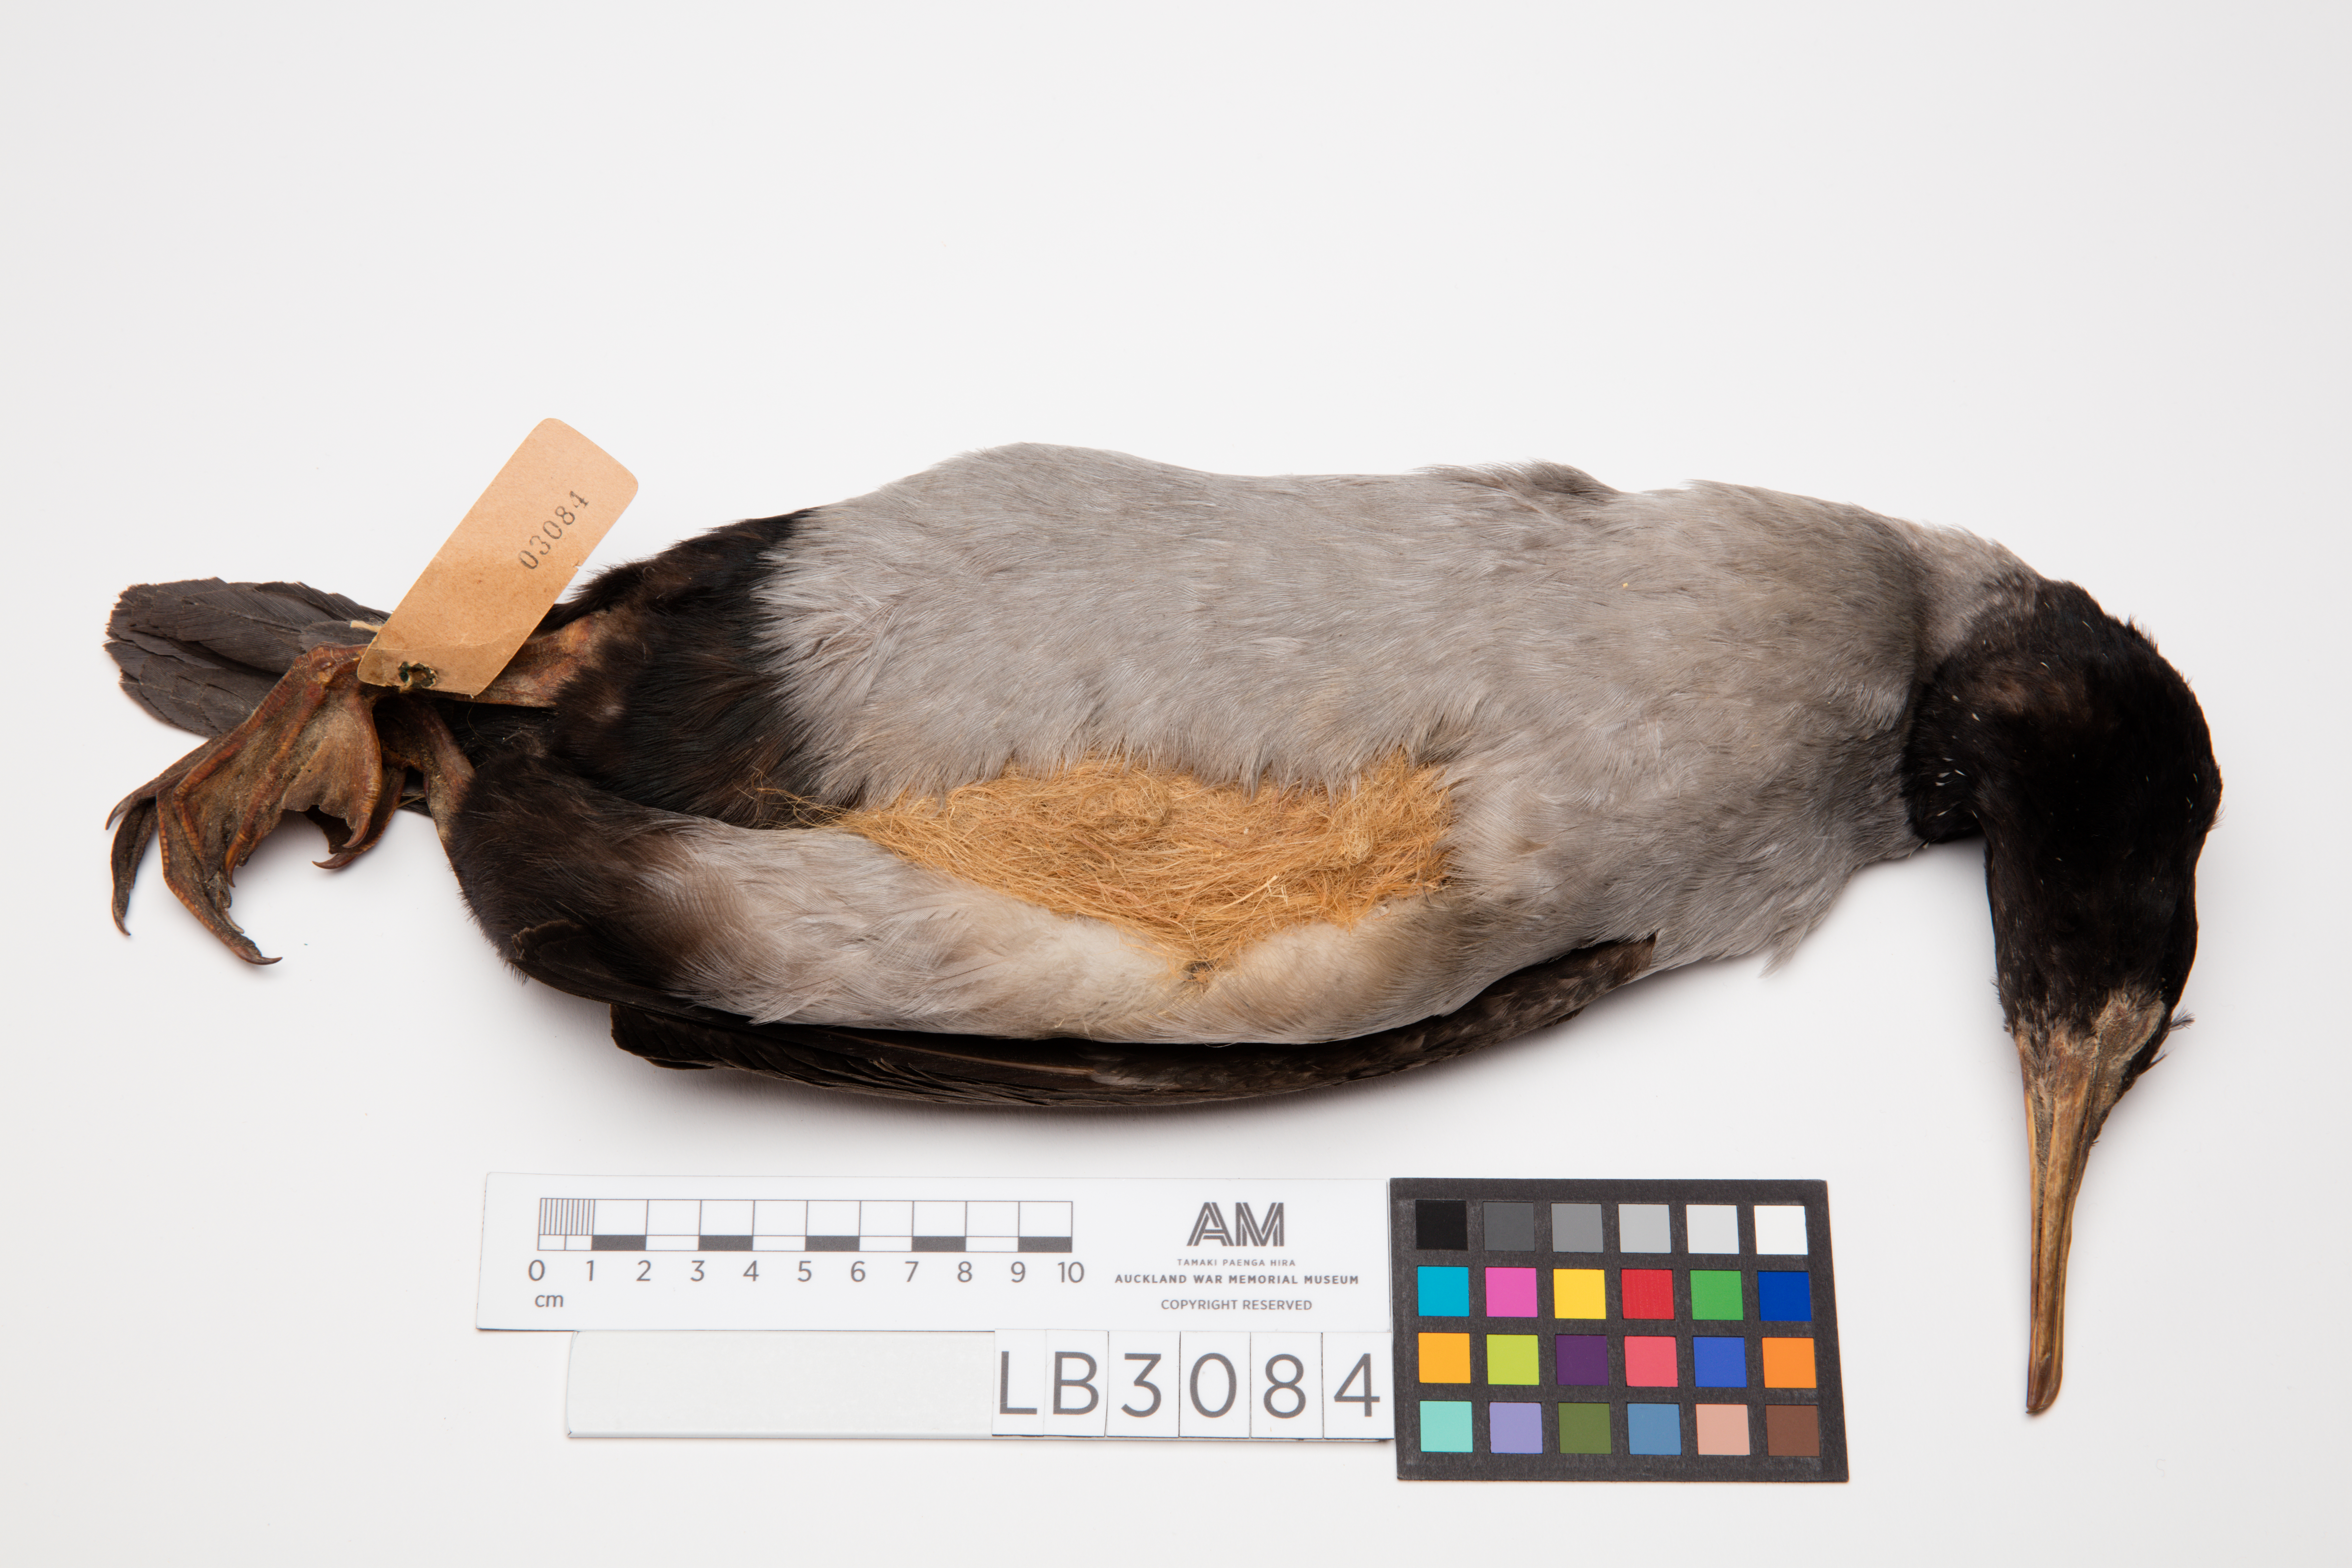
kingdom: Animalia
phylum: Chordata
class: Aves
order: Suliformes
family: Phalacrocoracidae
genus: Phalacrocorax
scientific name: Phalacrocorax featherstoni
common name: Pitt shag
